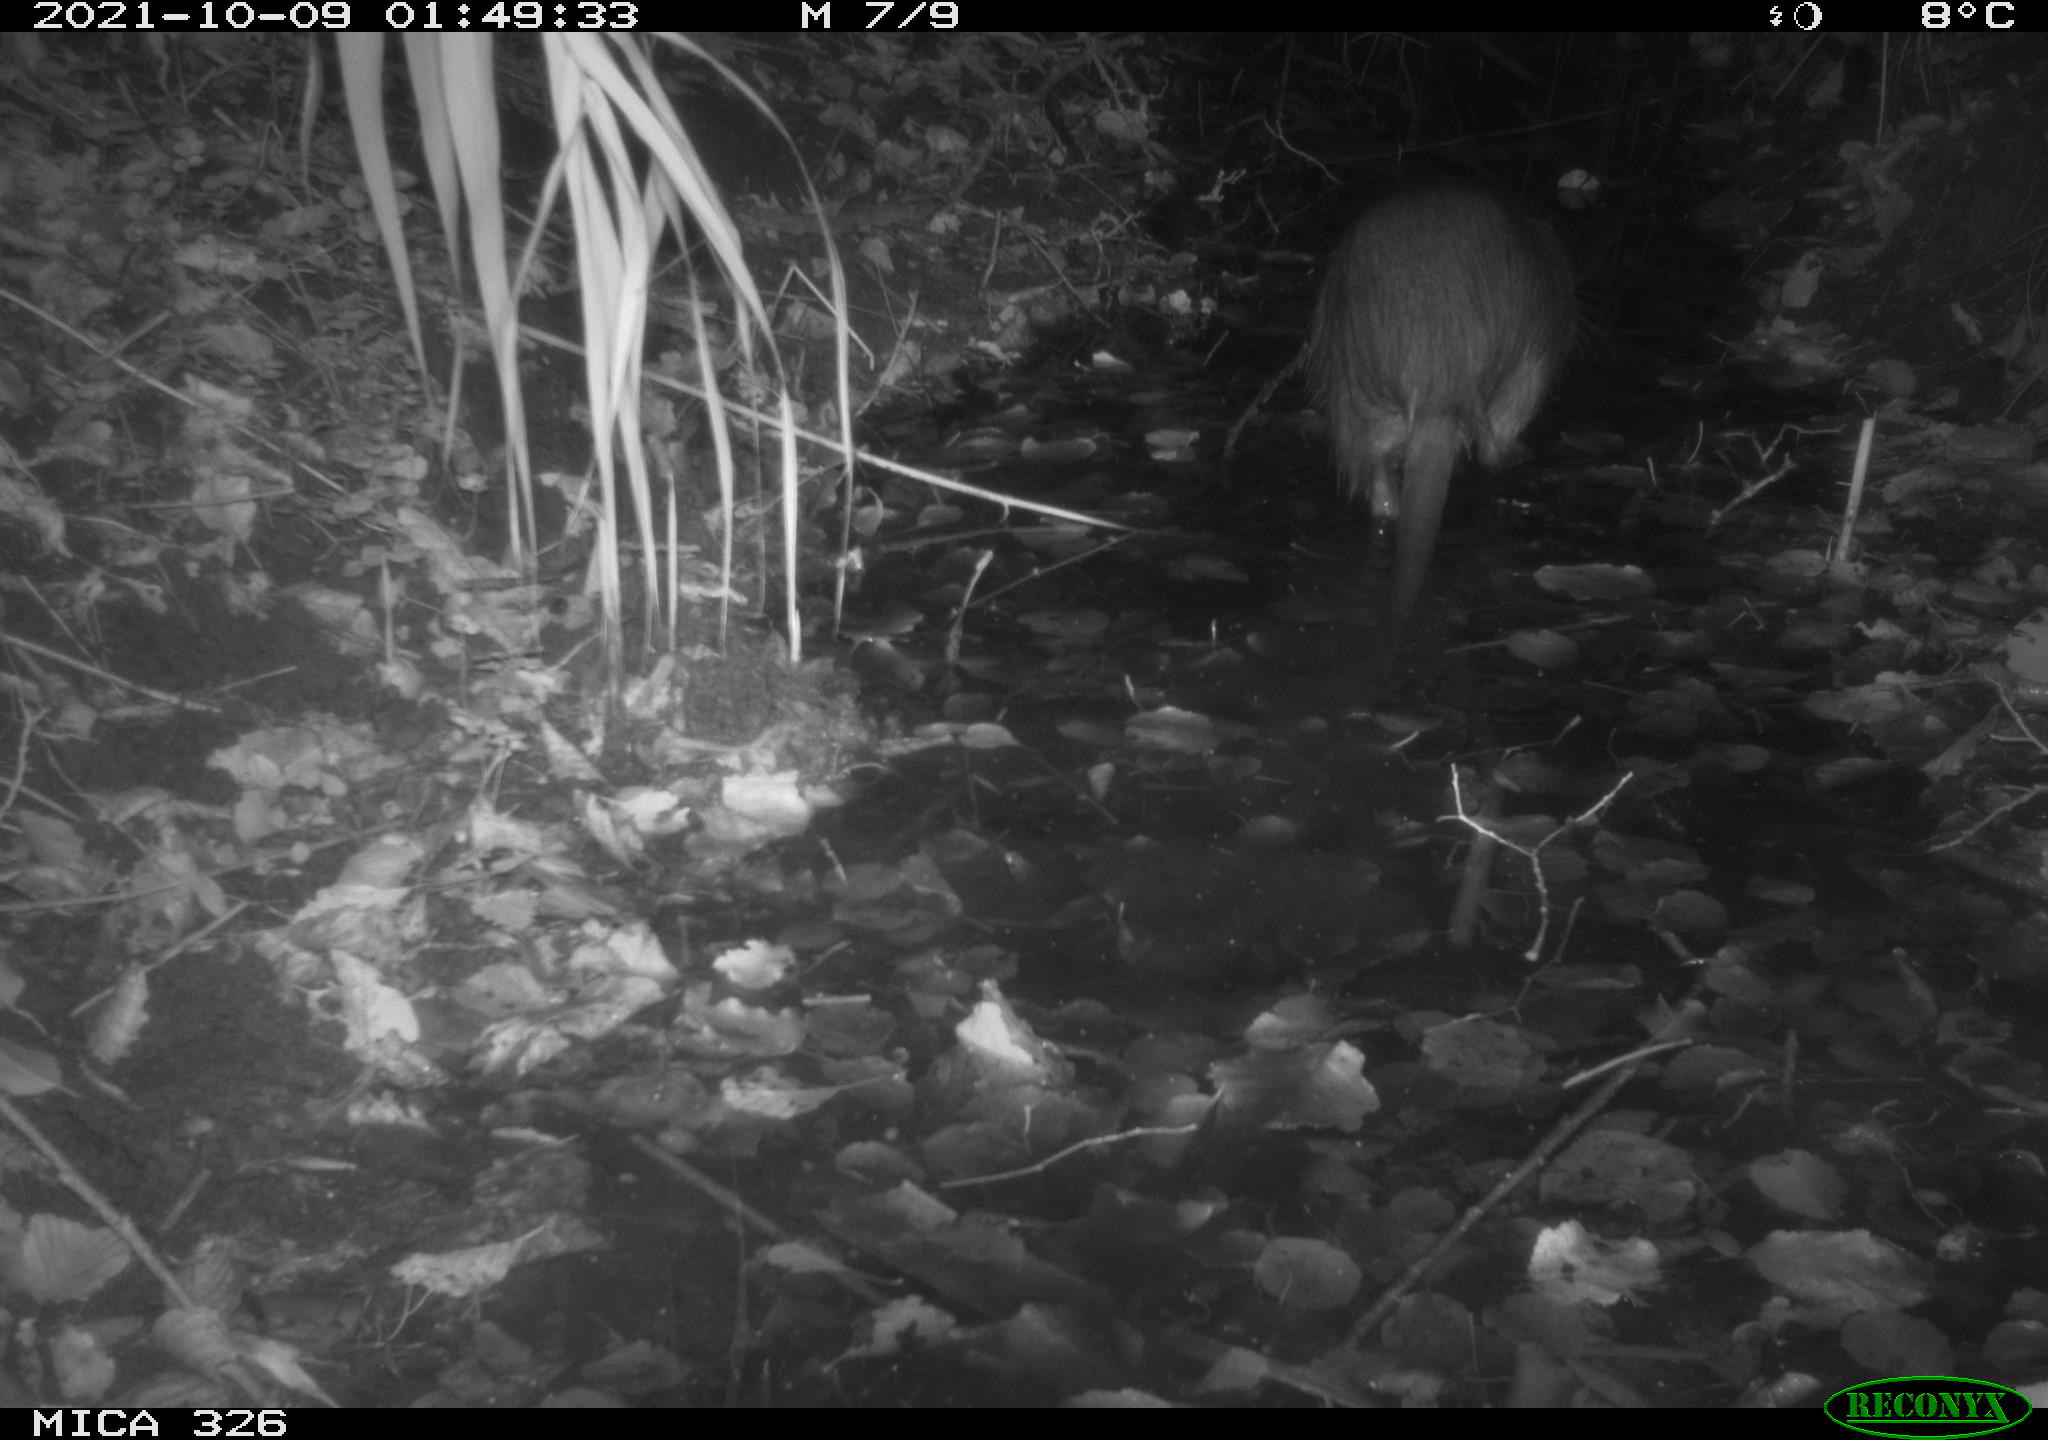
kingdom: Animalia
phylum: Chordata
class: Mammalia
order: Rodentia
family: Myocastoridae
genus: Myocastor
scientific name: Myocastor coypus
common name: Coypu
